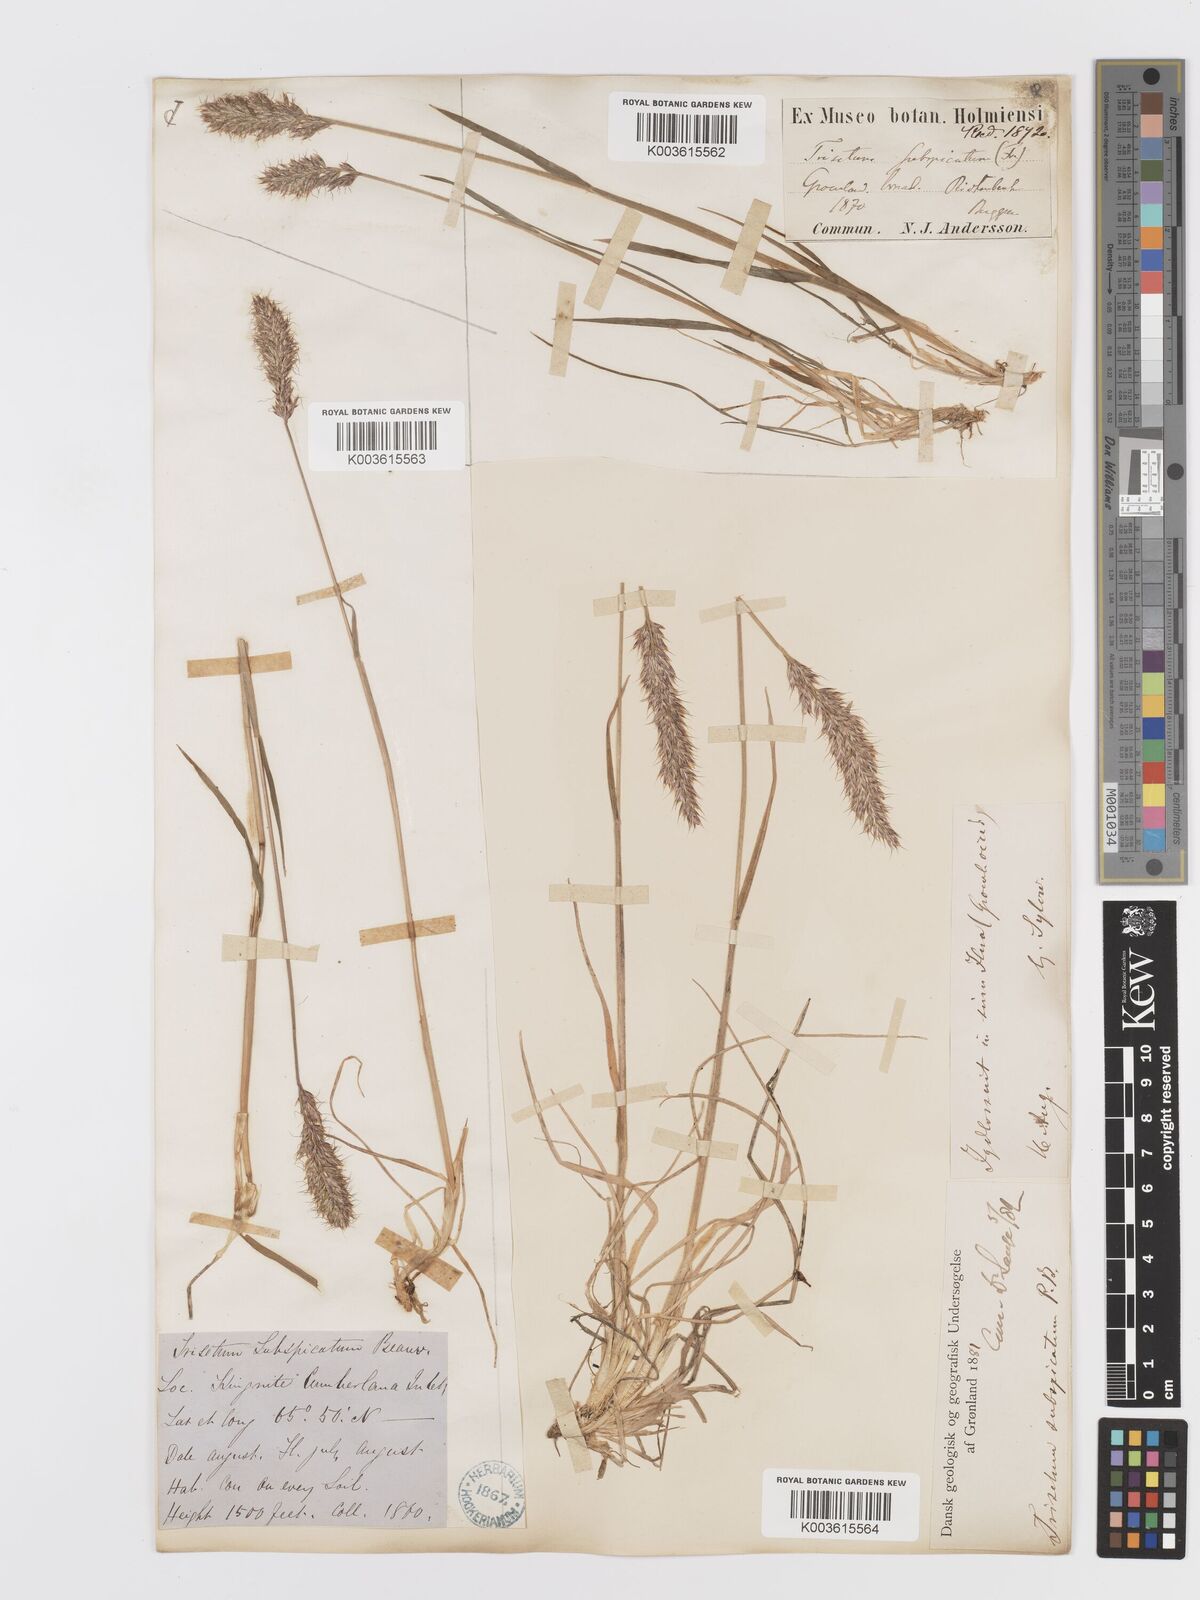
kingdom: Plantae
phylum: Tracheophyta
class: Liliopsida
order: Poales
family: Poaceae
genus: Koeleria
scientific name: Koeleria spicata
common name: Mountain trisetum
